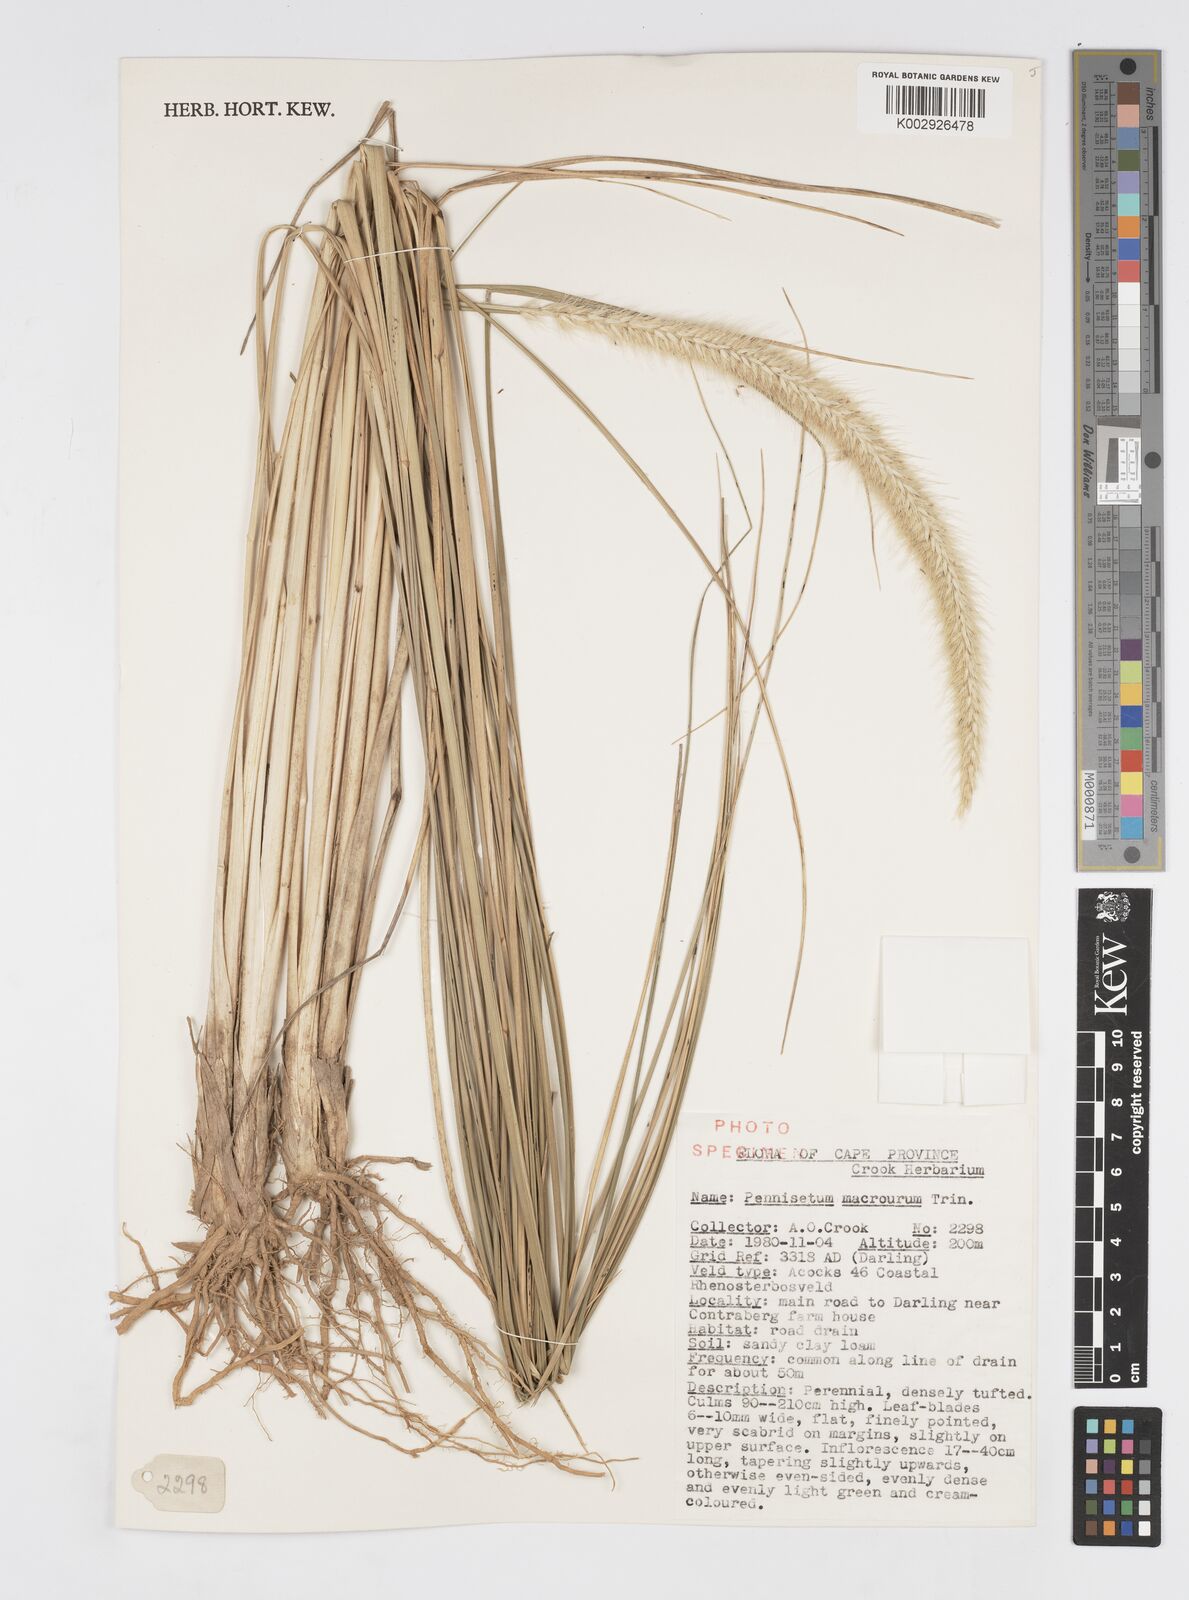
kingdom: Plantae
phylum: Tracheophyta
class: Liliopsida
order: Poales
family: Poaceae
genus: Cenchrus
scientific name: Cenchrus caudatus
